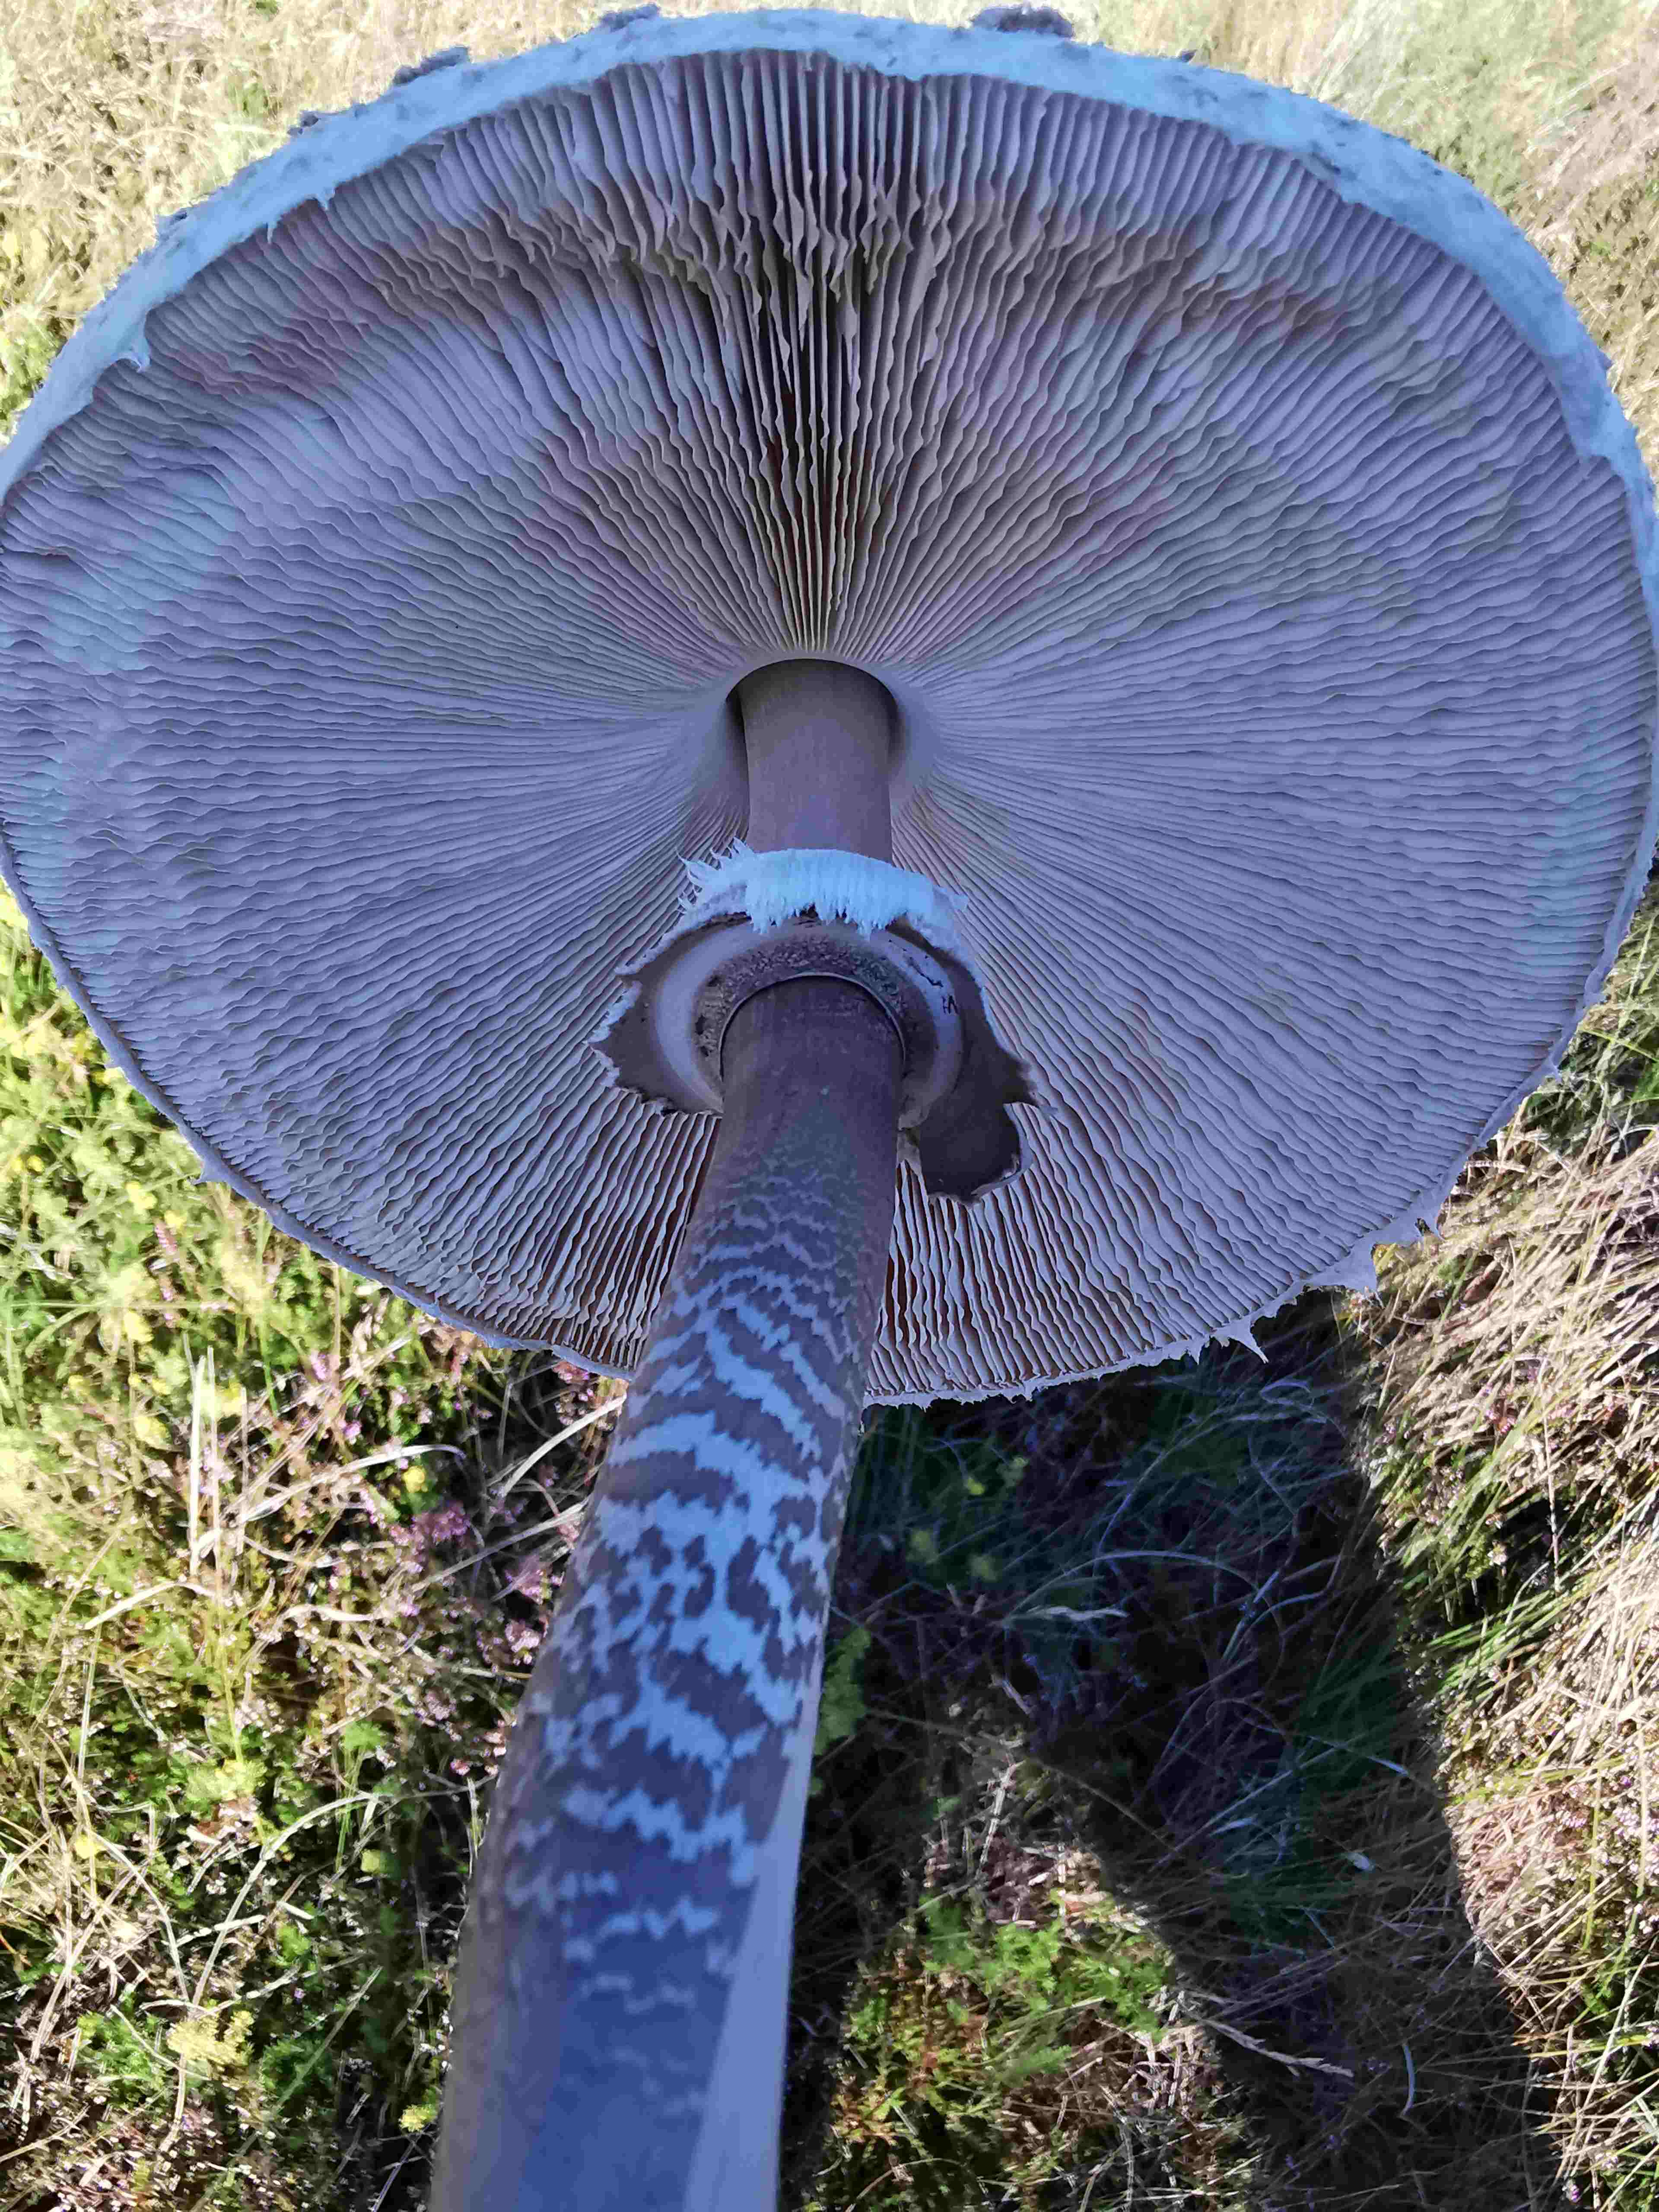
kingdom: Fungi
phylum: Basidiomycota
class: Agaricomycetes
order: Agaricales
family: Agaricaceae
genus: Macrolepiota
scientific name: Macrolepiota procera
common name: stor kæmpeparasolhat
